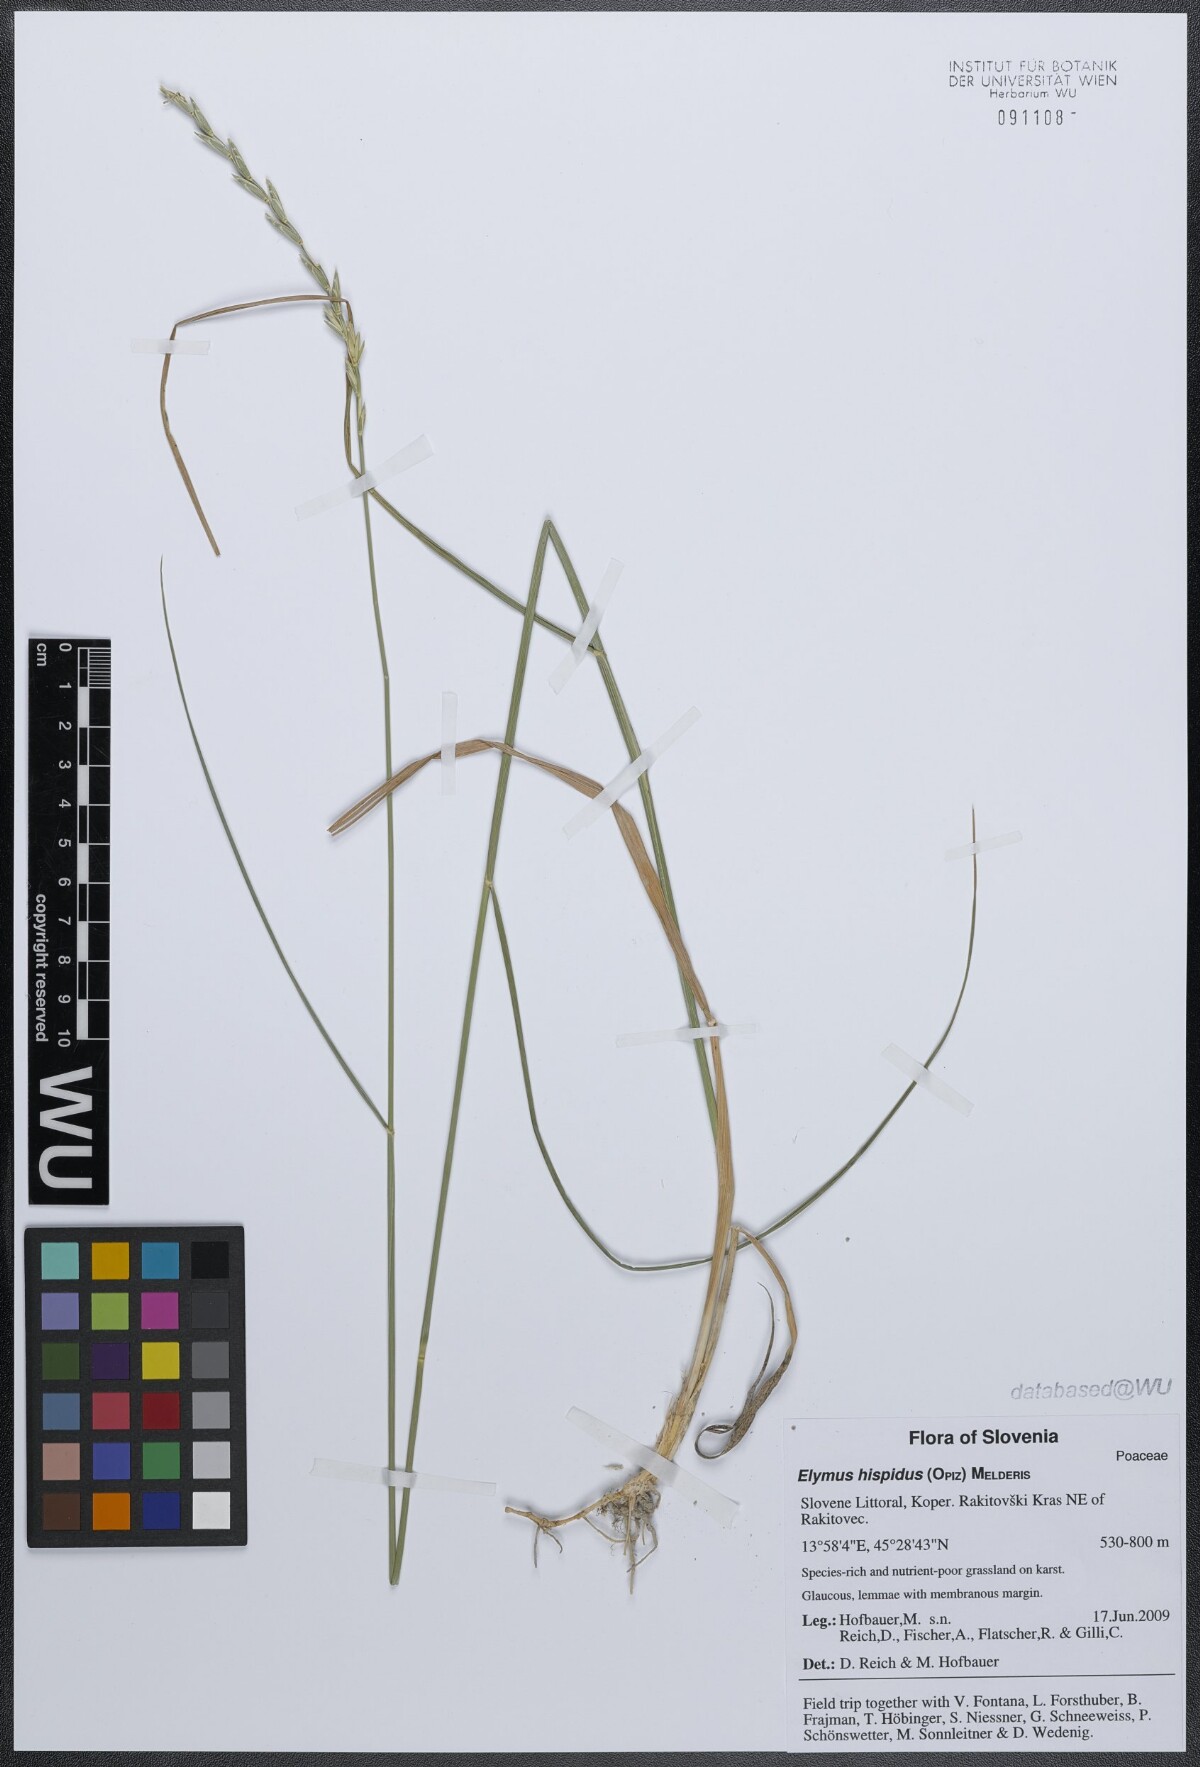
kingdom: Plantae
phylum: Tracheophyta
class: Liliopsida
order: Poales
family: Poaceae
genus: Thinopyrum
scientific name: Thinopyrum intermedium
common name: Intermediate wheatgrass
